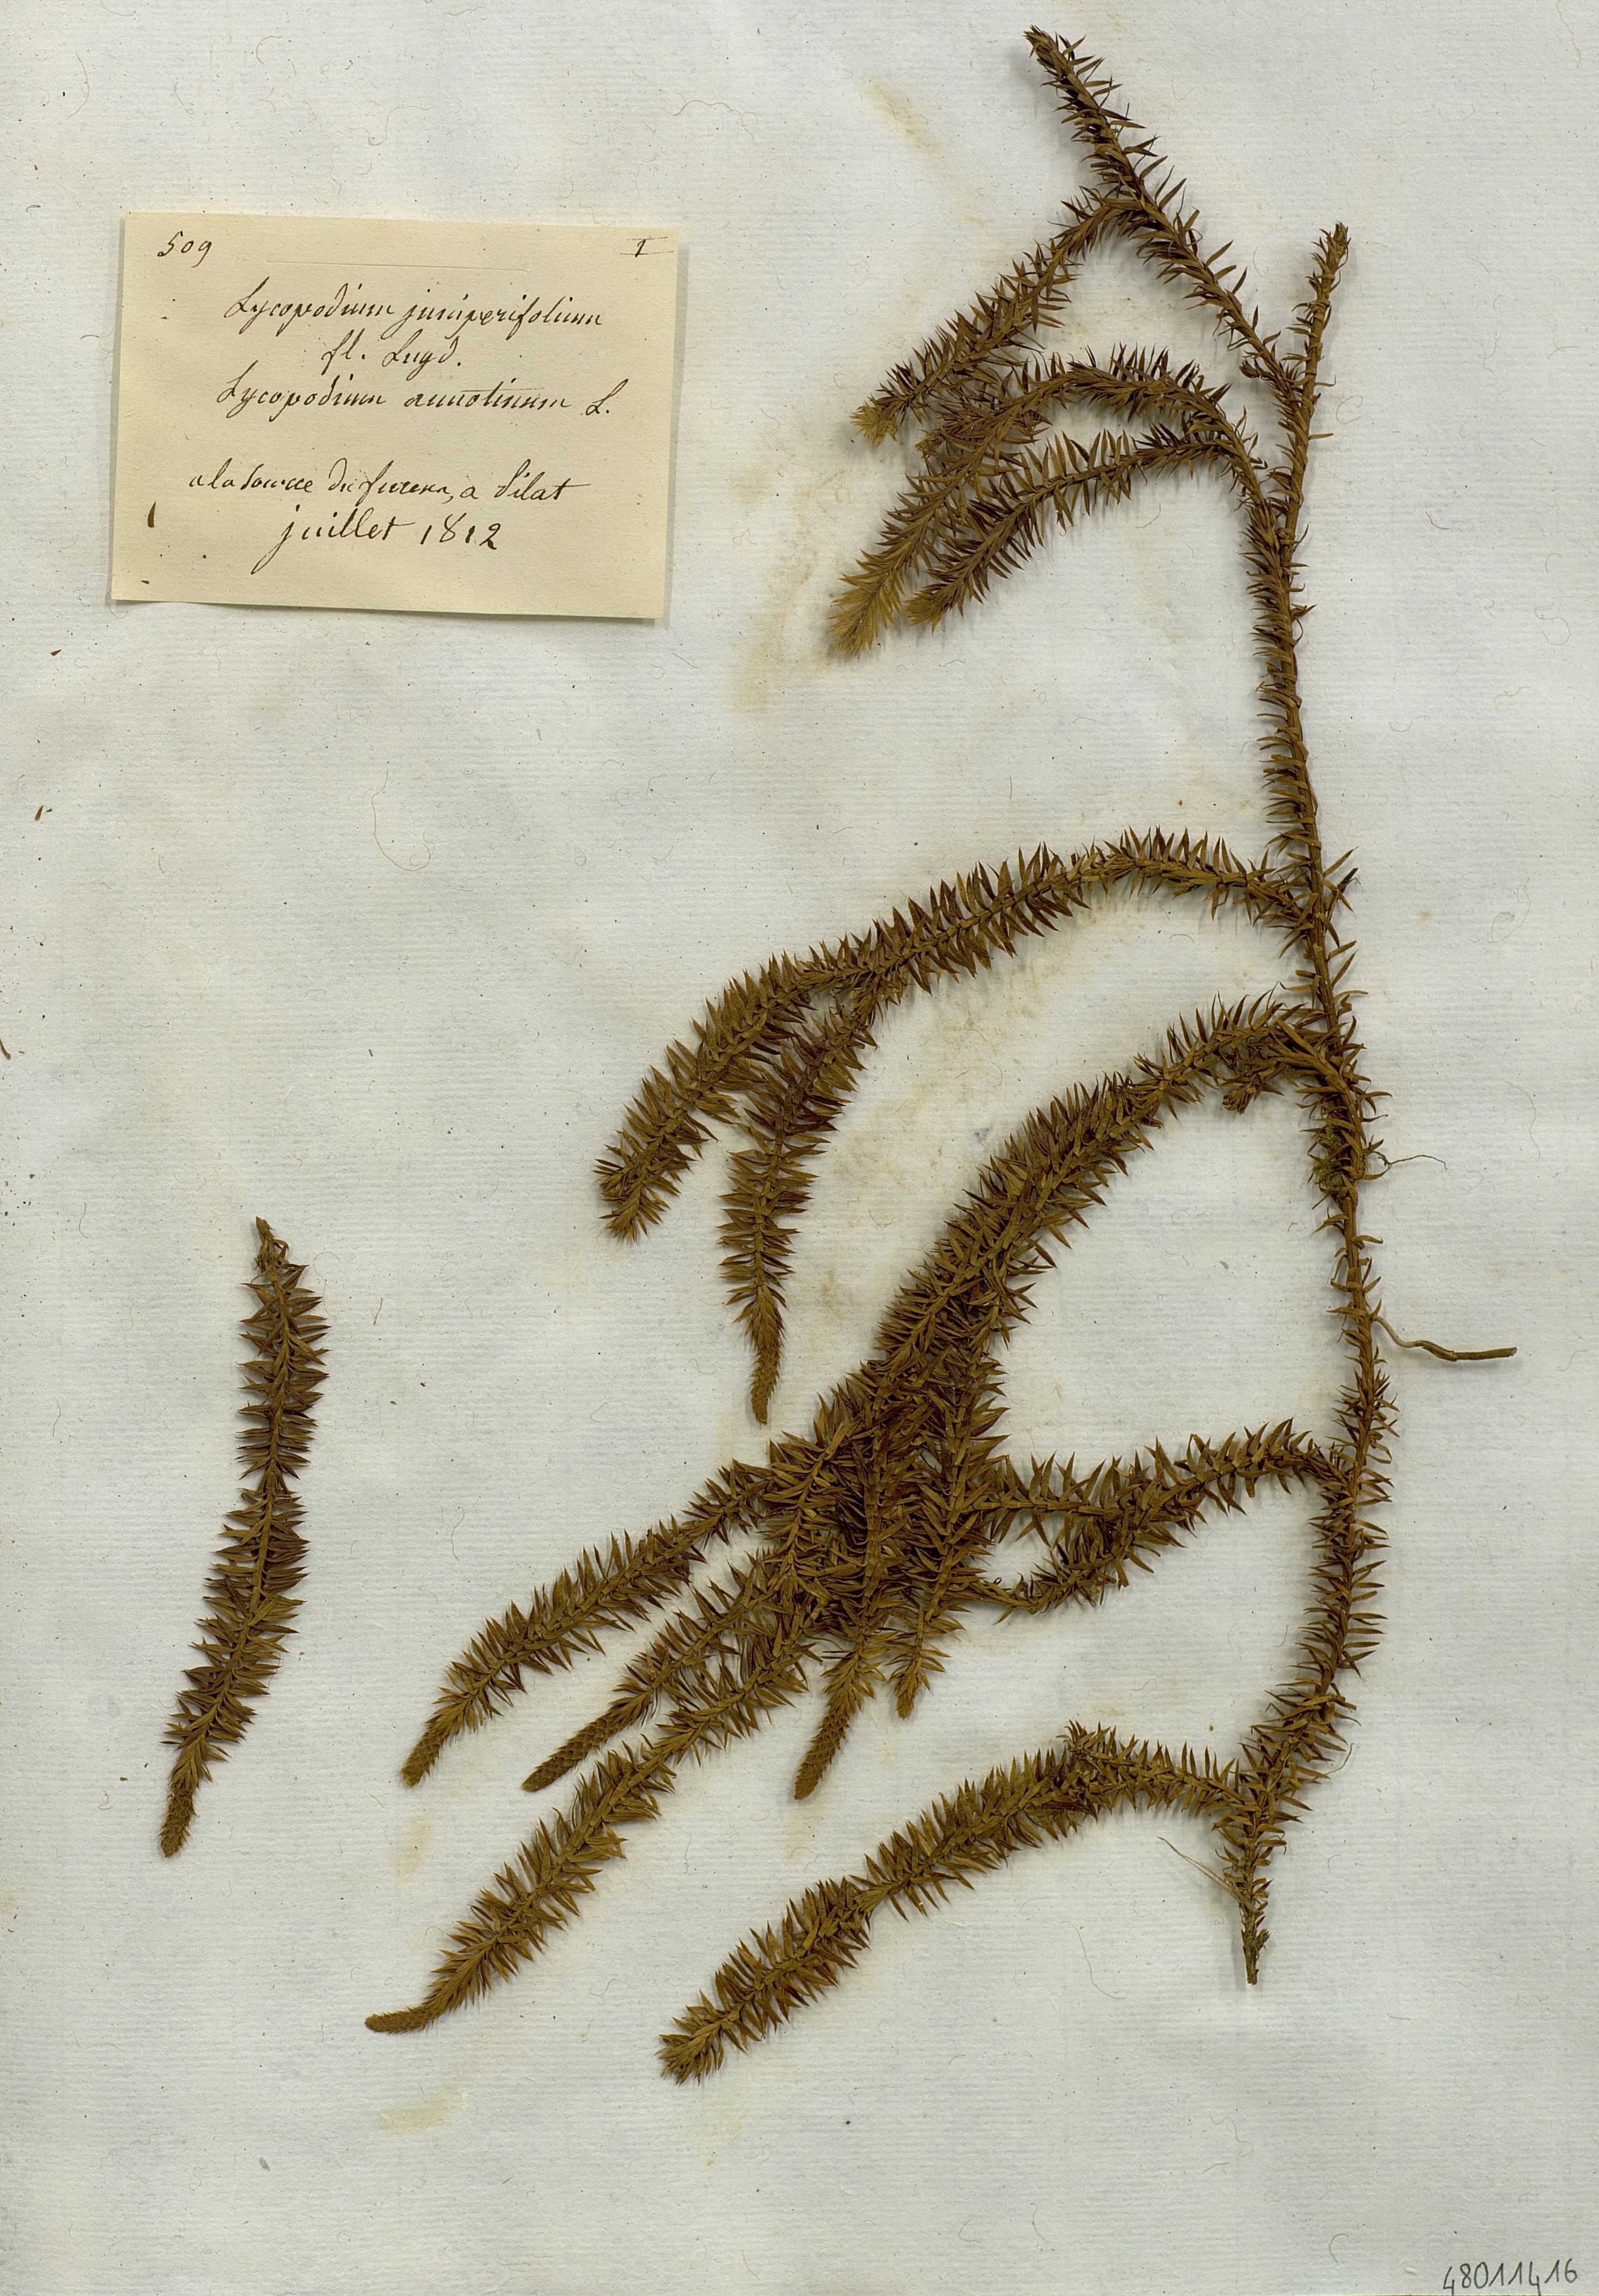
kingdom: Plantae
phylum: Tracheophyta
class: Lycopodiopsida
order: Lycopodiales
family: Lycopodiaceae
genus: Spinulum
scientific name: Spinulum annotinum
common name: Interrupted club-moss
